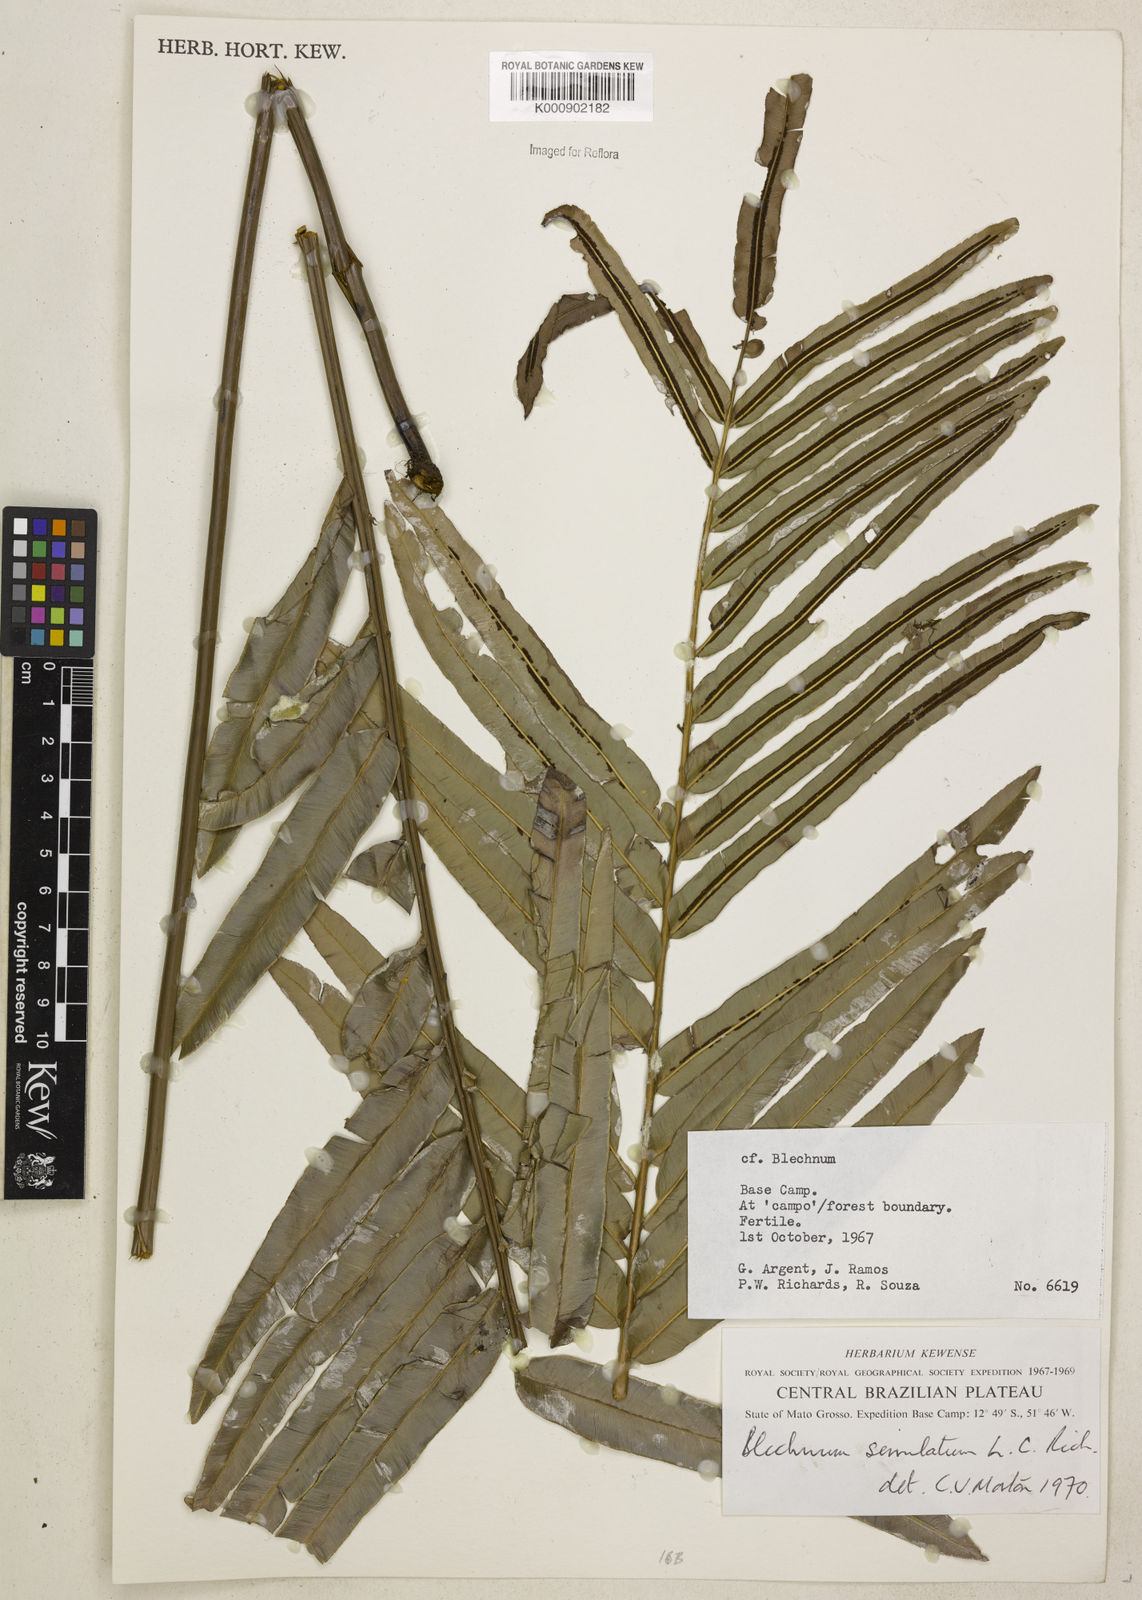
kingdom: Plantae
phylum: Tracheophyta
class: Polypodiopsida
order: Polypodiales
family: Blechnaceae
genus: Telmatoblechnum
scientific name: Telmatoblechnum serrulatum
